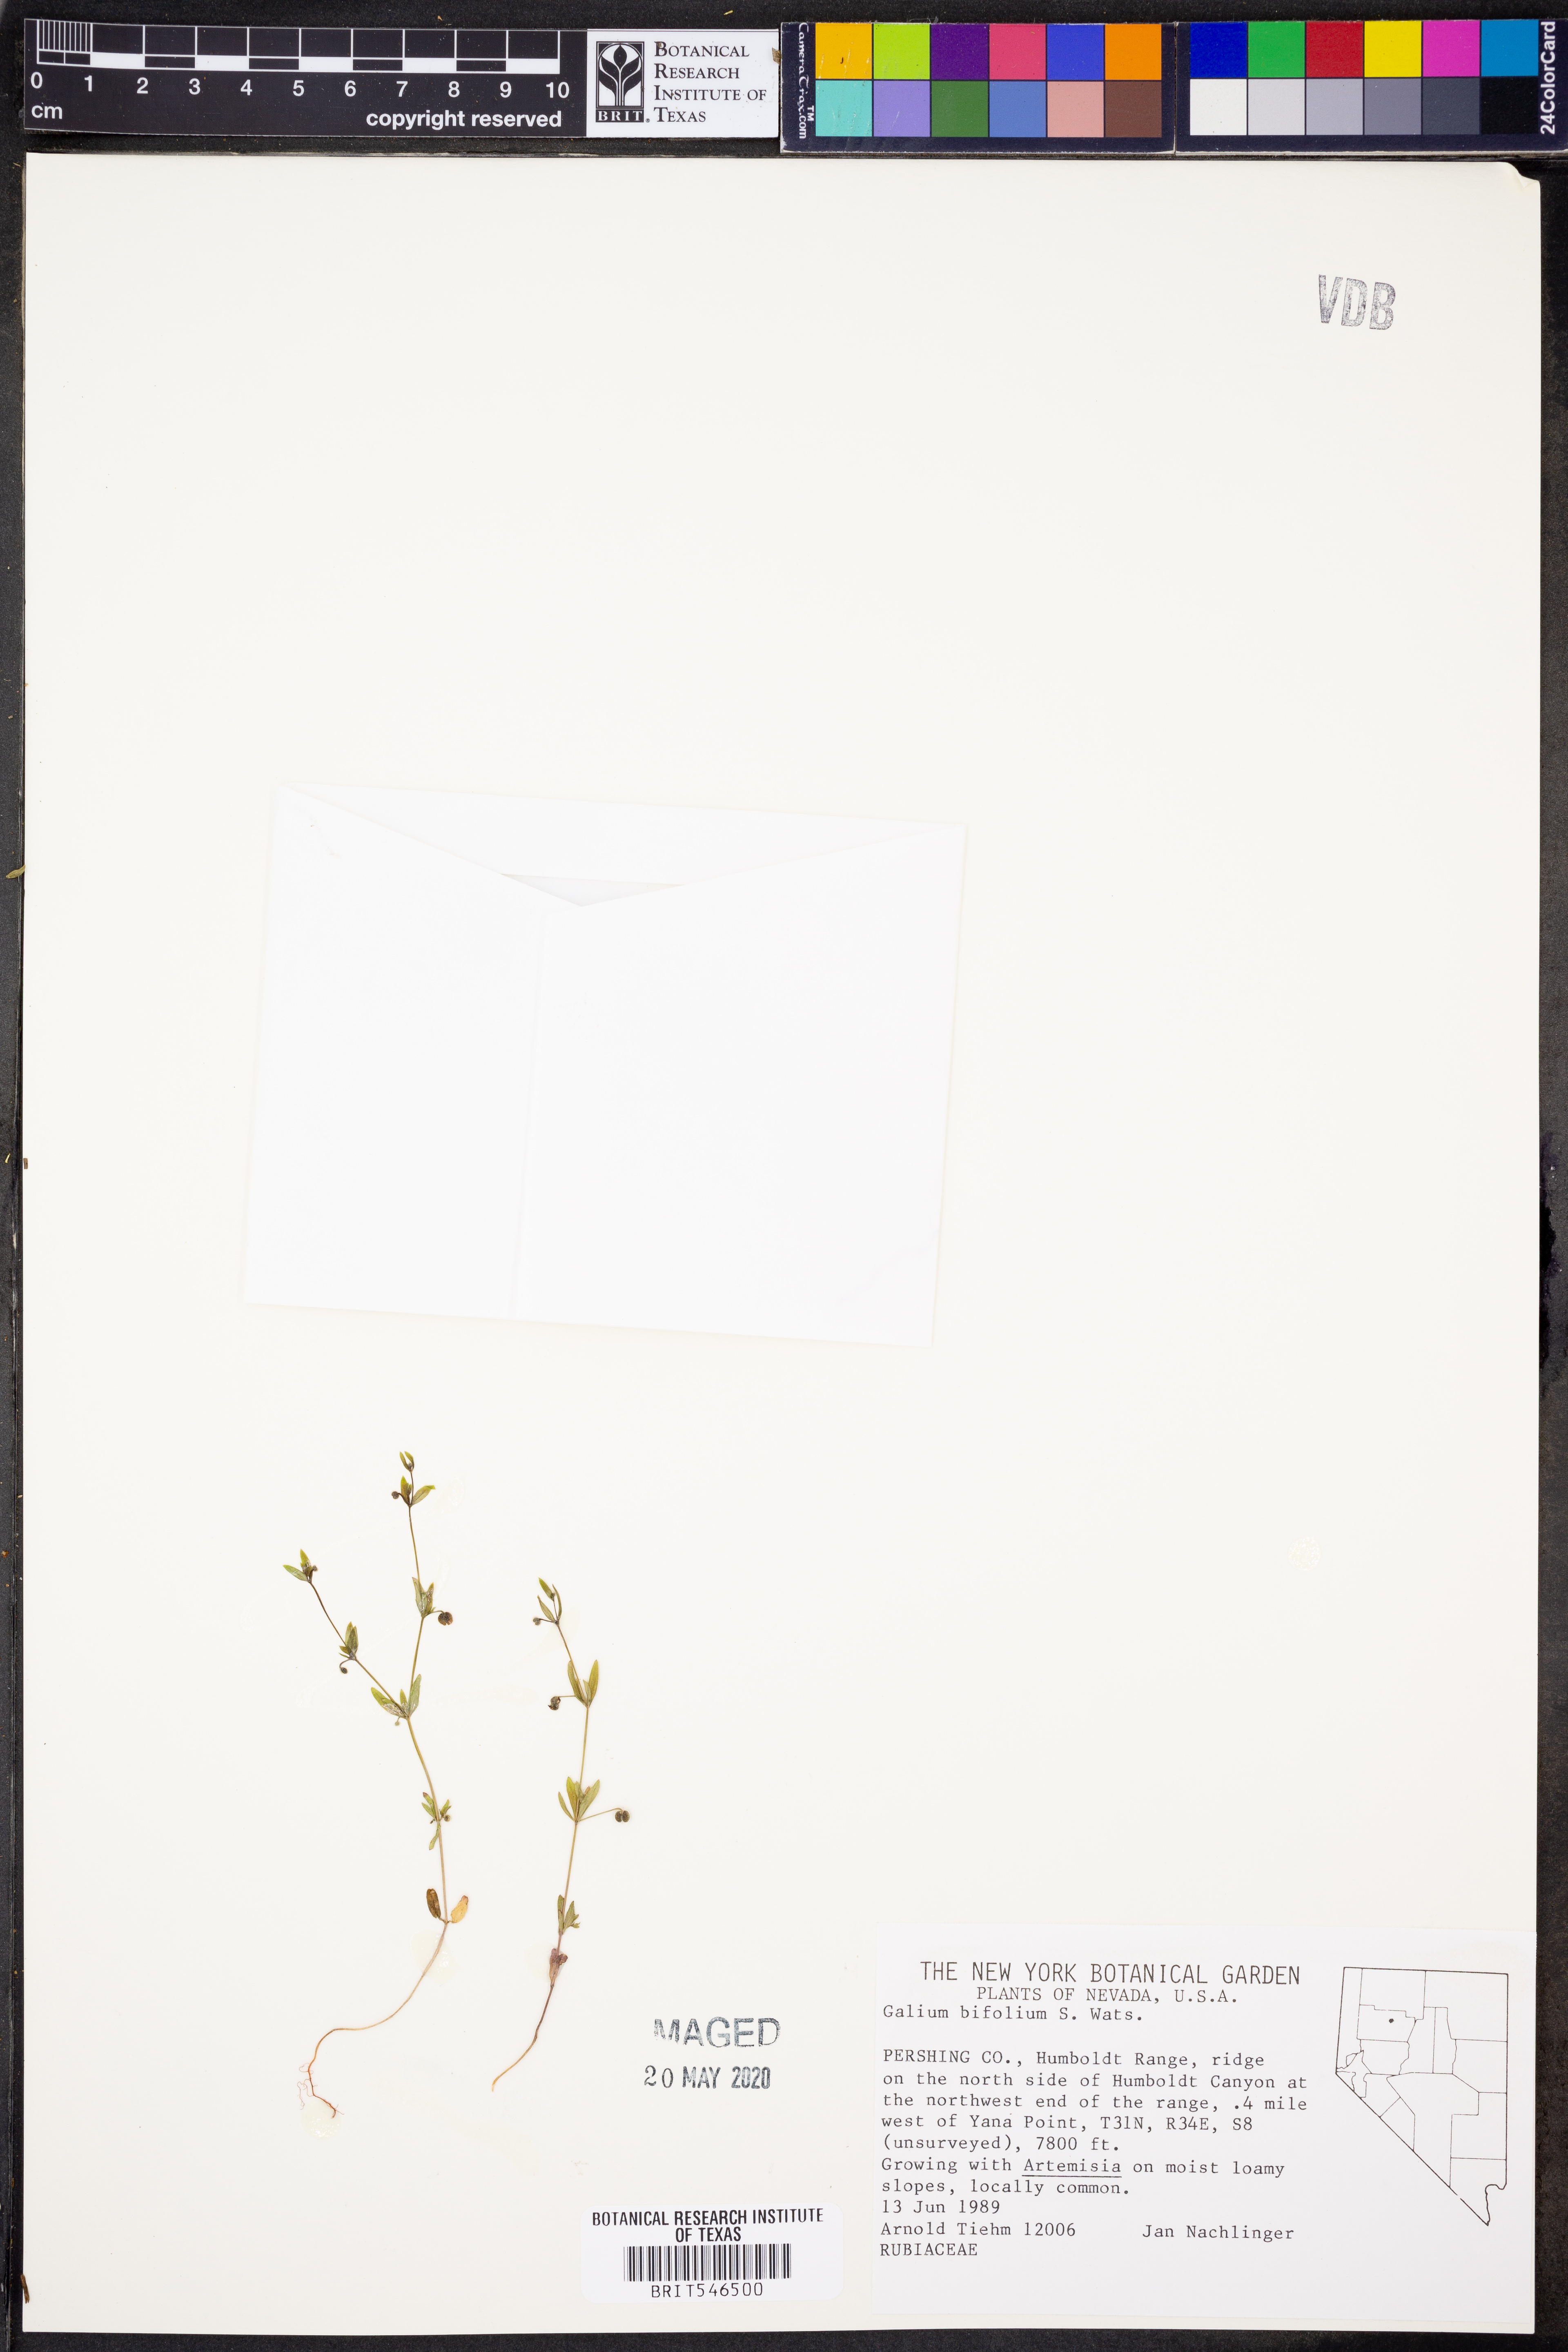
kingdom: Plantae
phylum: Tracheophyta
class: Magnoliopsida
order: Gentianales
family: Rubiaceae
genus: Galium
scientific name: Galium bifolium
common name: Low mountain bedstraw
